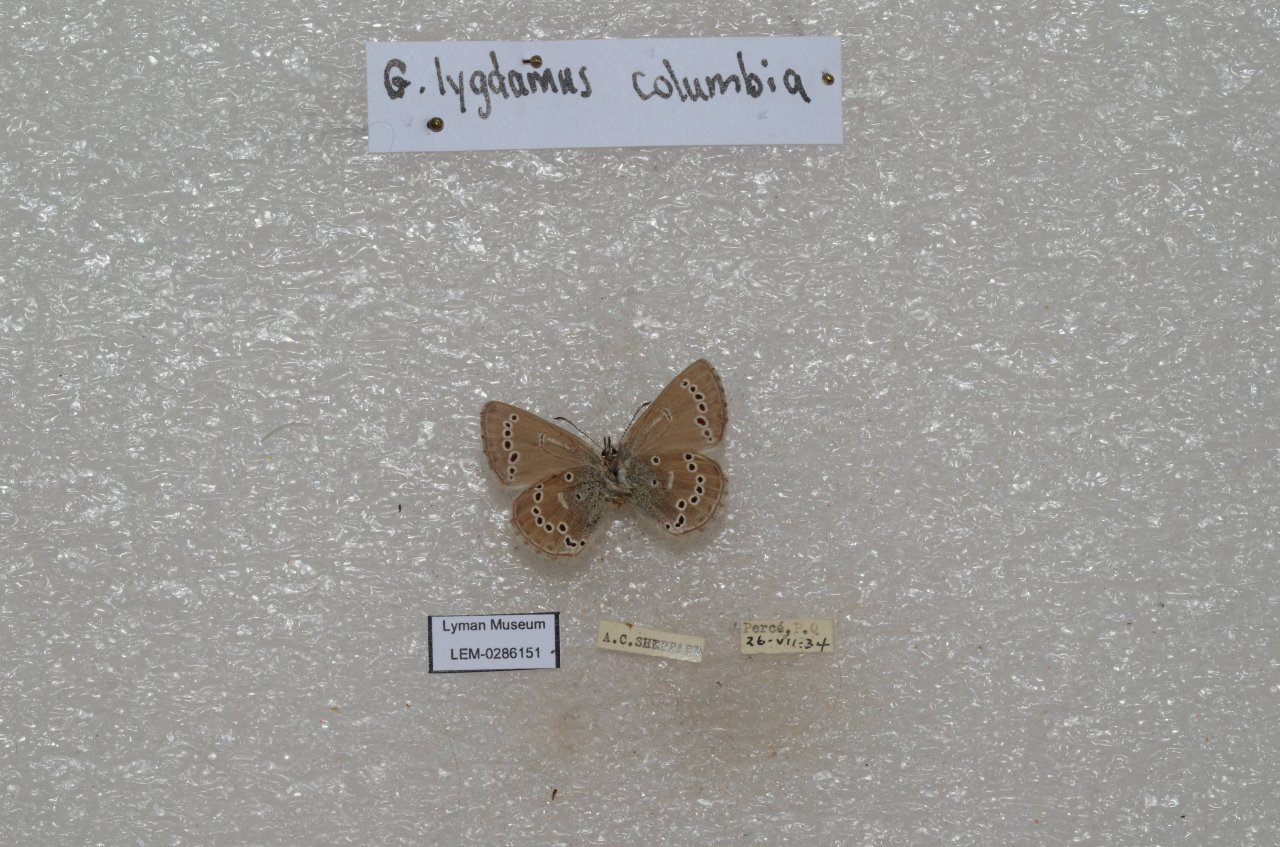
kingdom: Animalia
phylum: Arthropoda
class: Insecta
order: Lepidoptera
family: Lycaenidae
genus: Glaucopsyche
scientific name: Glaucopsyche lygdamus
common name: Silvery Blue
